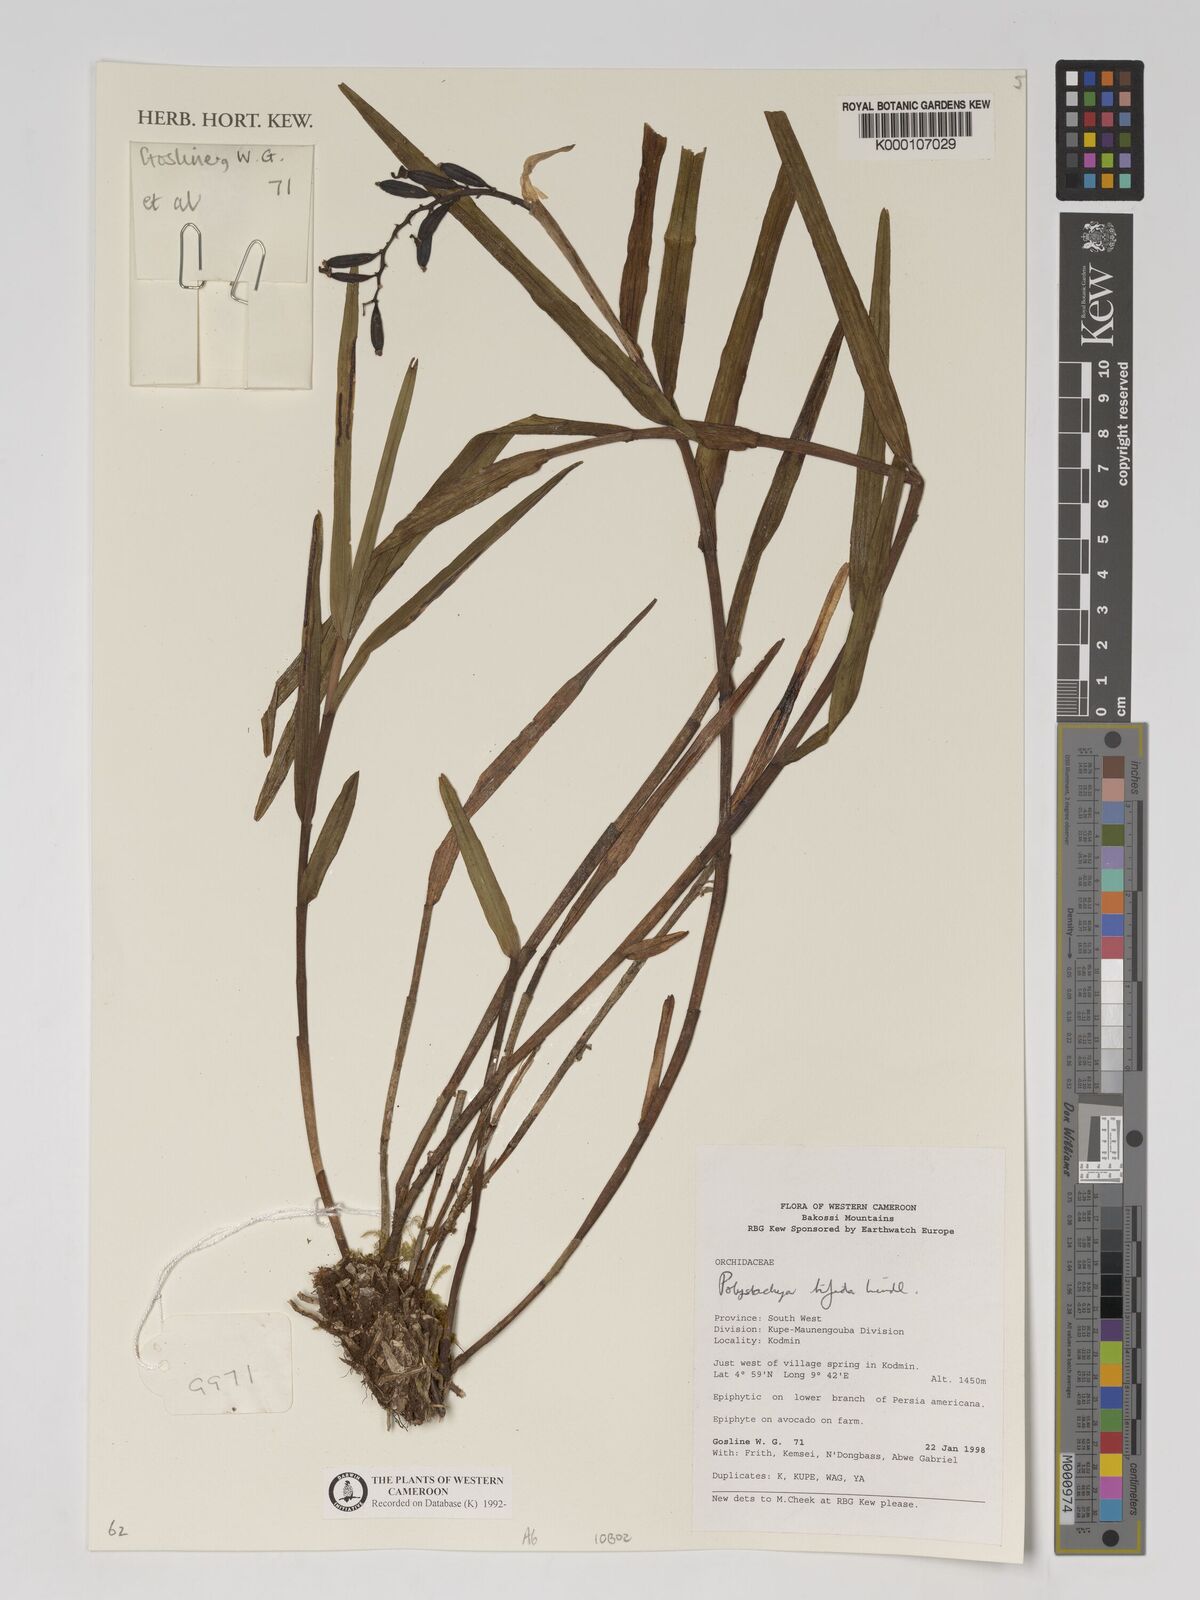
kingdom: Plantae
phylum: Tracheophyta
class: Liliopsida
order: Asparagales
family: Orchidaceae
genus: Polystachya
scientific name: Polystachya bifida
